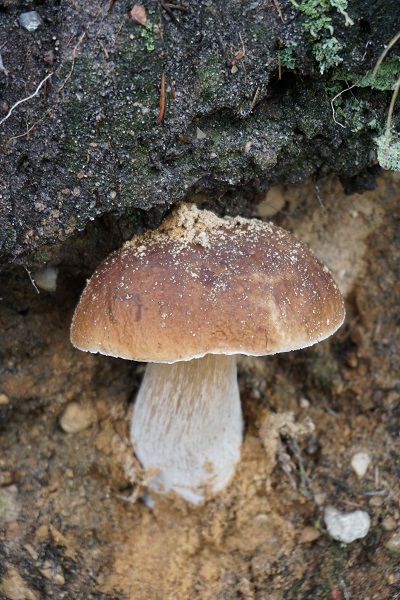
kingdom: Fungi
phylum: Basidiomycota
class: Agaricomycetes
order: Boletales
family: Boletaceae
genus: Boletus
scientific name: Boletus edulis
